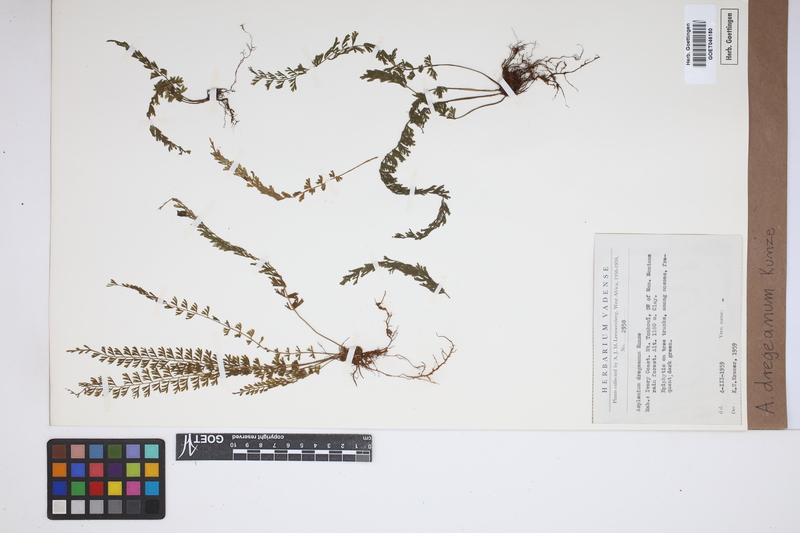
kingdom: Plantae
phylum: Tracheophyta
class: Polypodiopsida
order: Polypodiales
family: Aspleniaceae
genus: Asplenium
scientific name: Asplenium dregeanum
